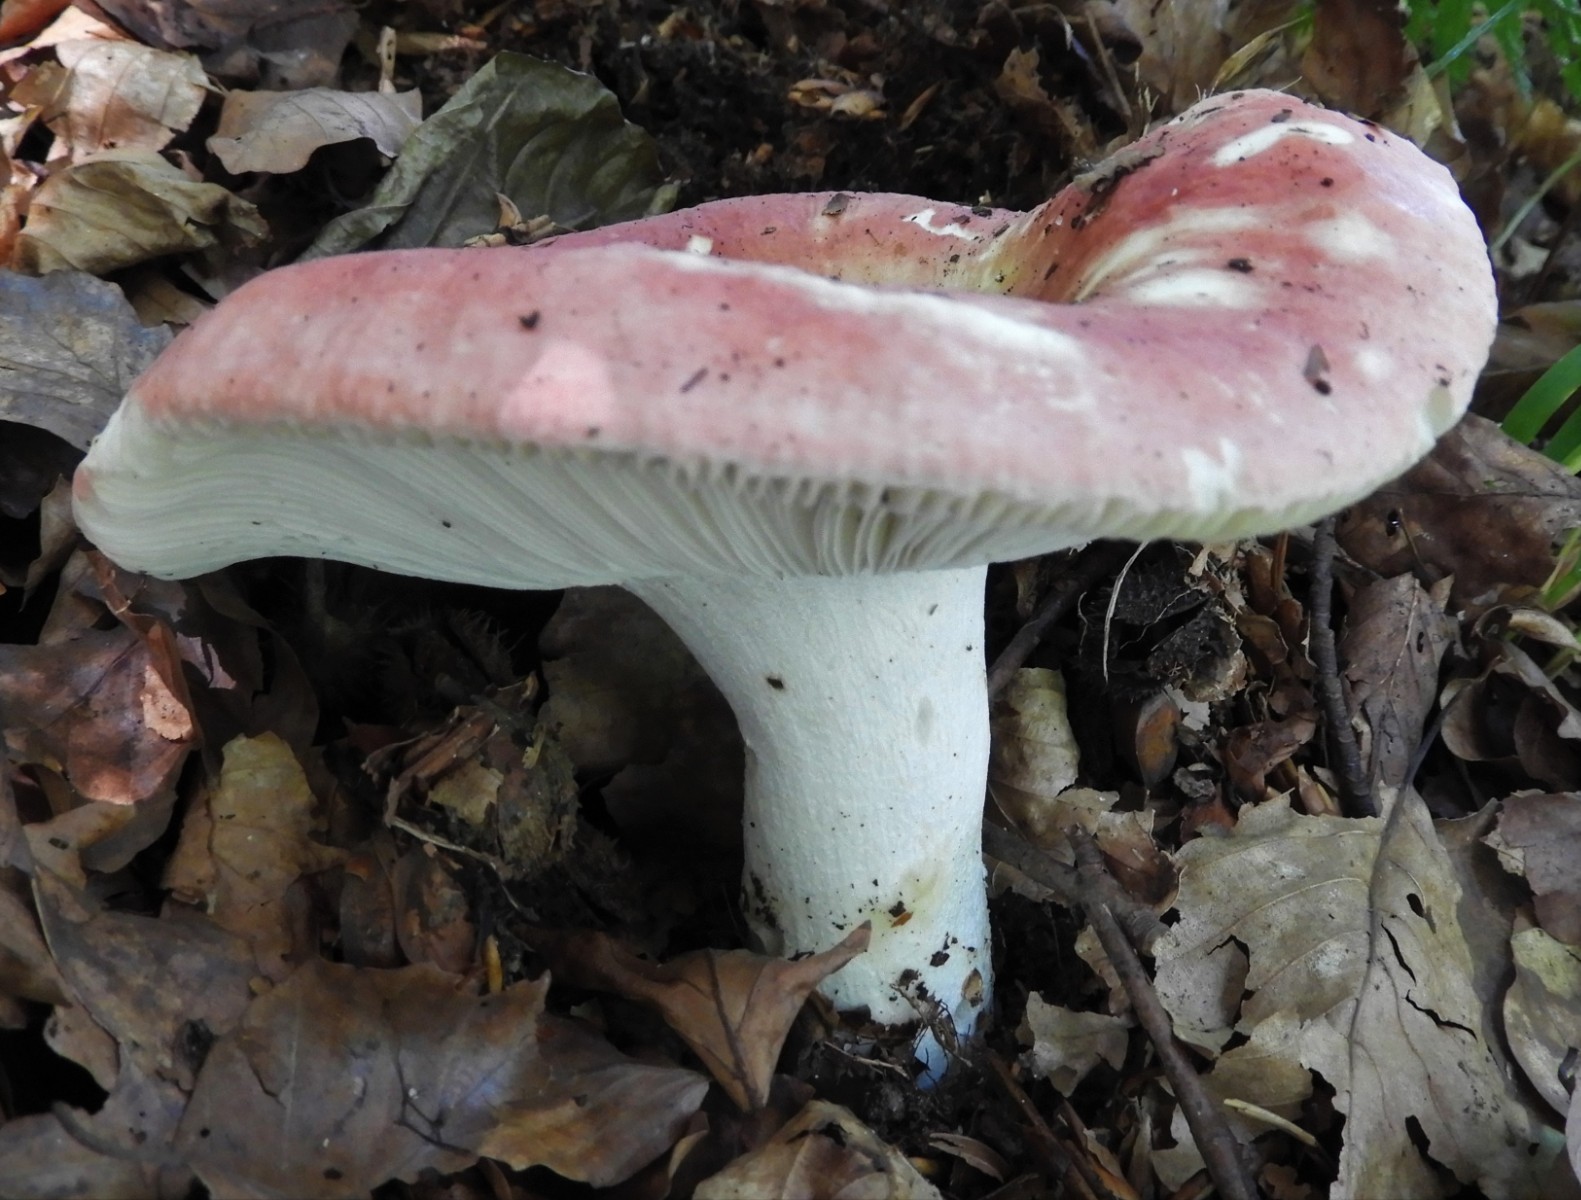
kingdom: Fungi
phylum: Basidiomycota
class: Agaricomycetes
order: Russulales
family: Russulaceae
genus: Russula
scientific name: Russula aurora
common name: rosa skørhat
